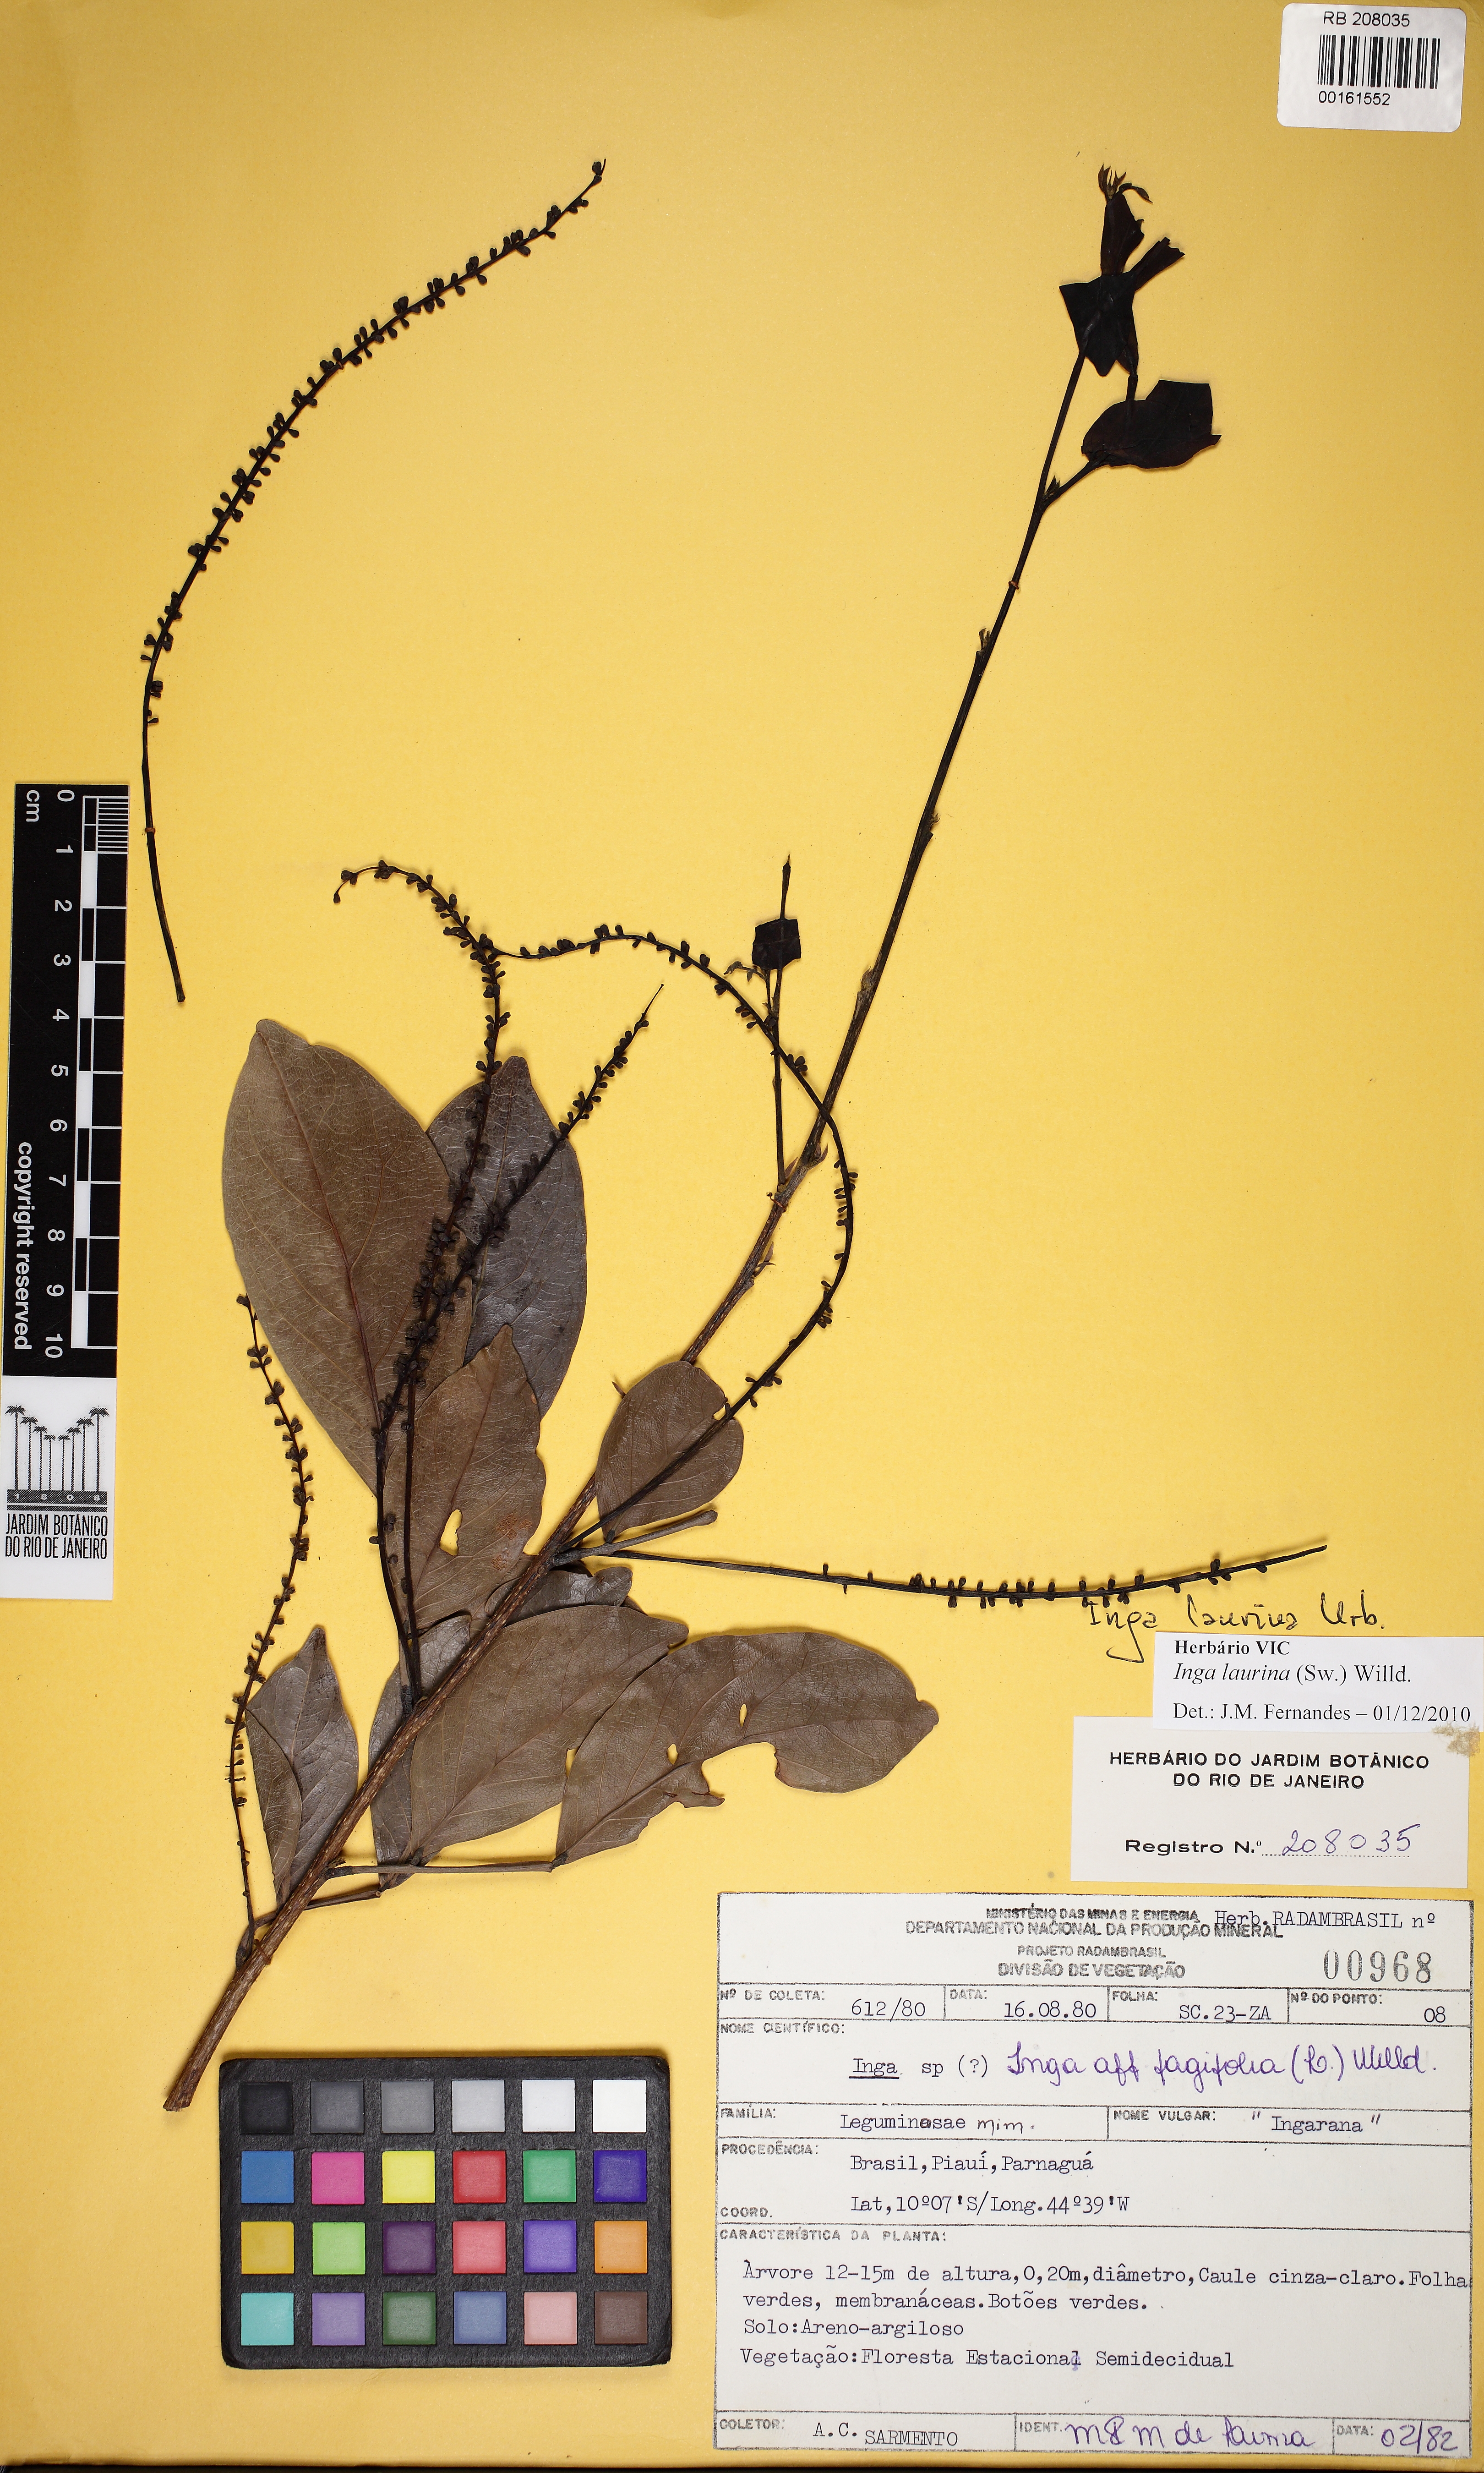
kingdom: Plantae
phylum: Tracheophyta
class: Magnoliopsida
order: Fabales
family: Fabaceae
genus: Inga
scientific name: Inga laurina
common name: Red wood
